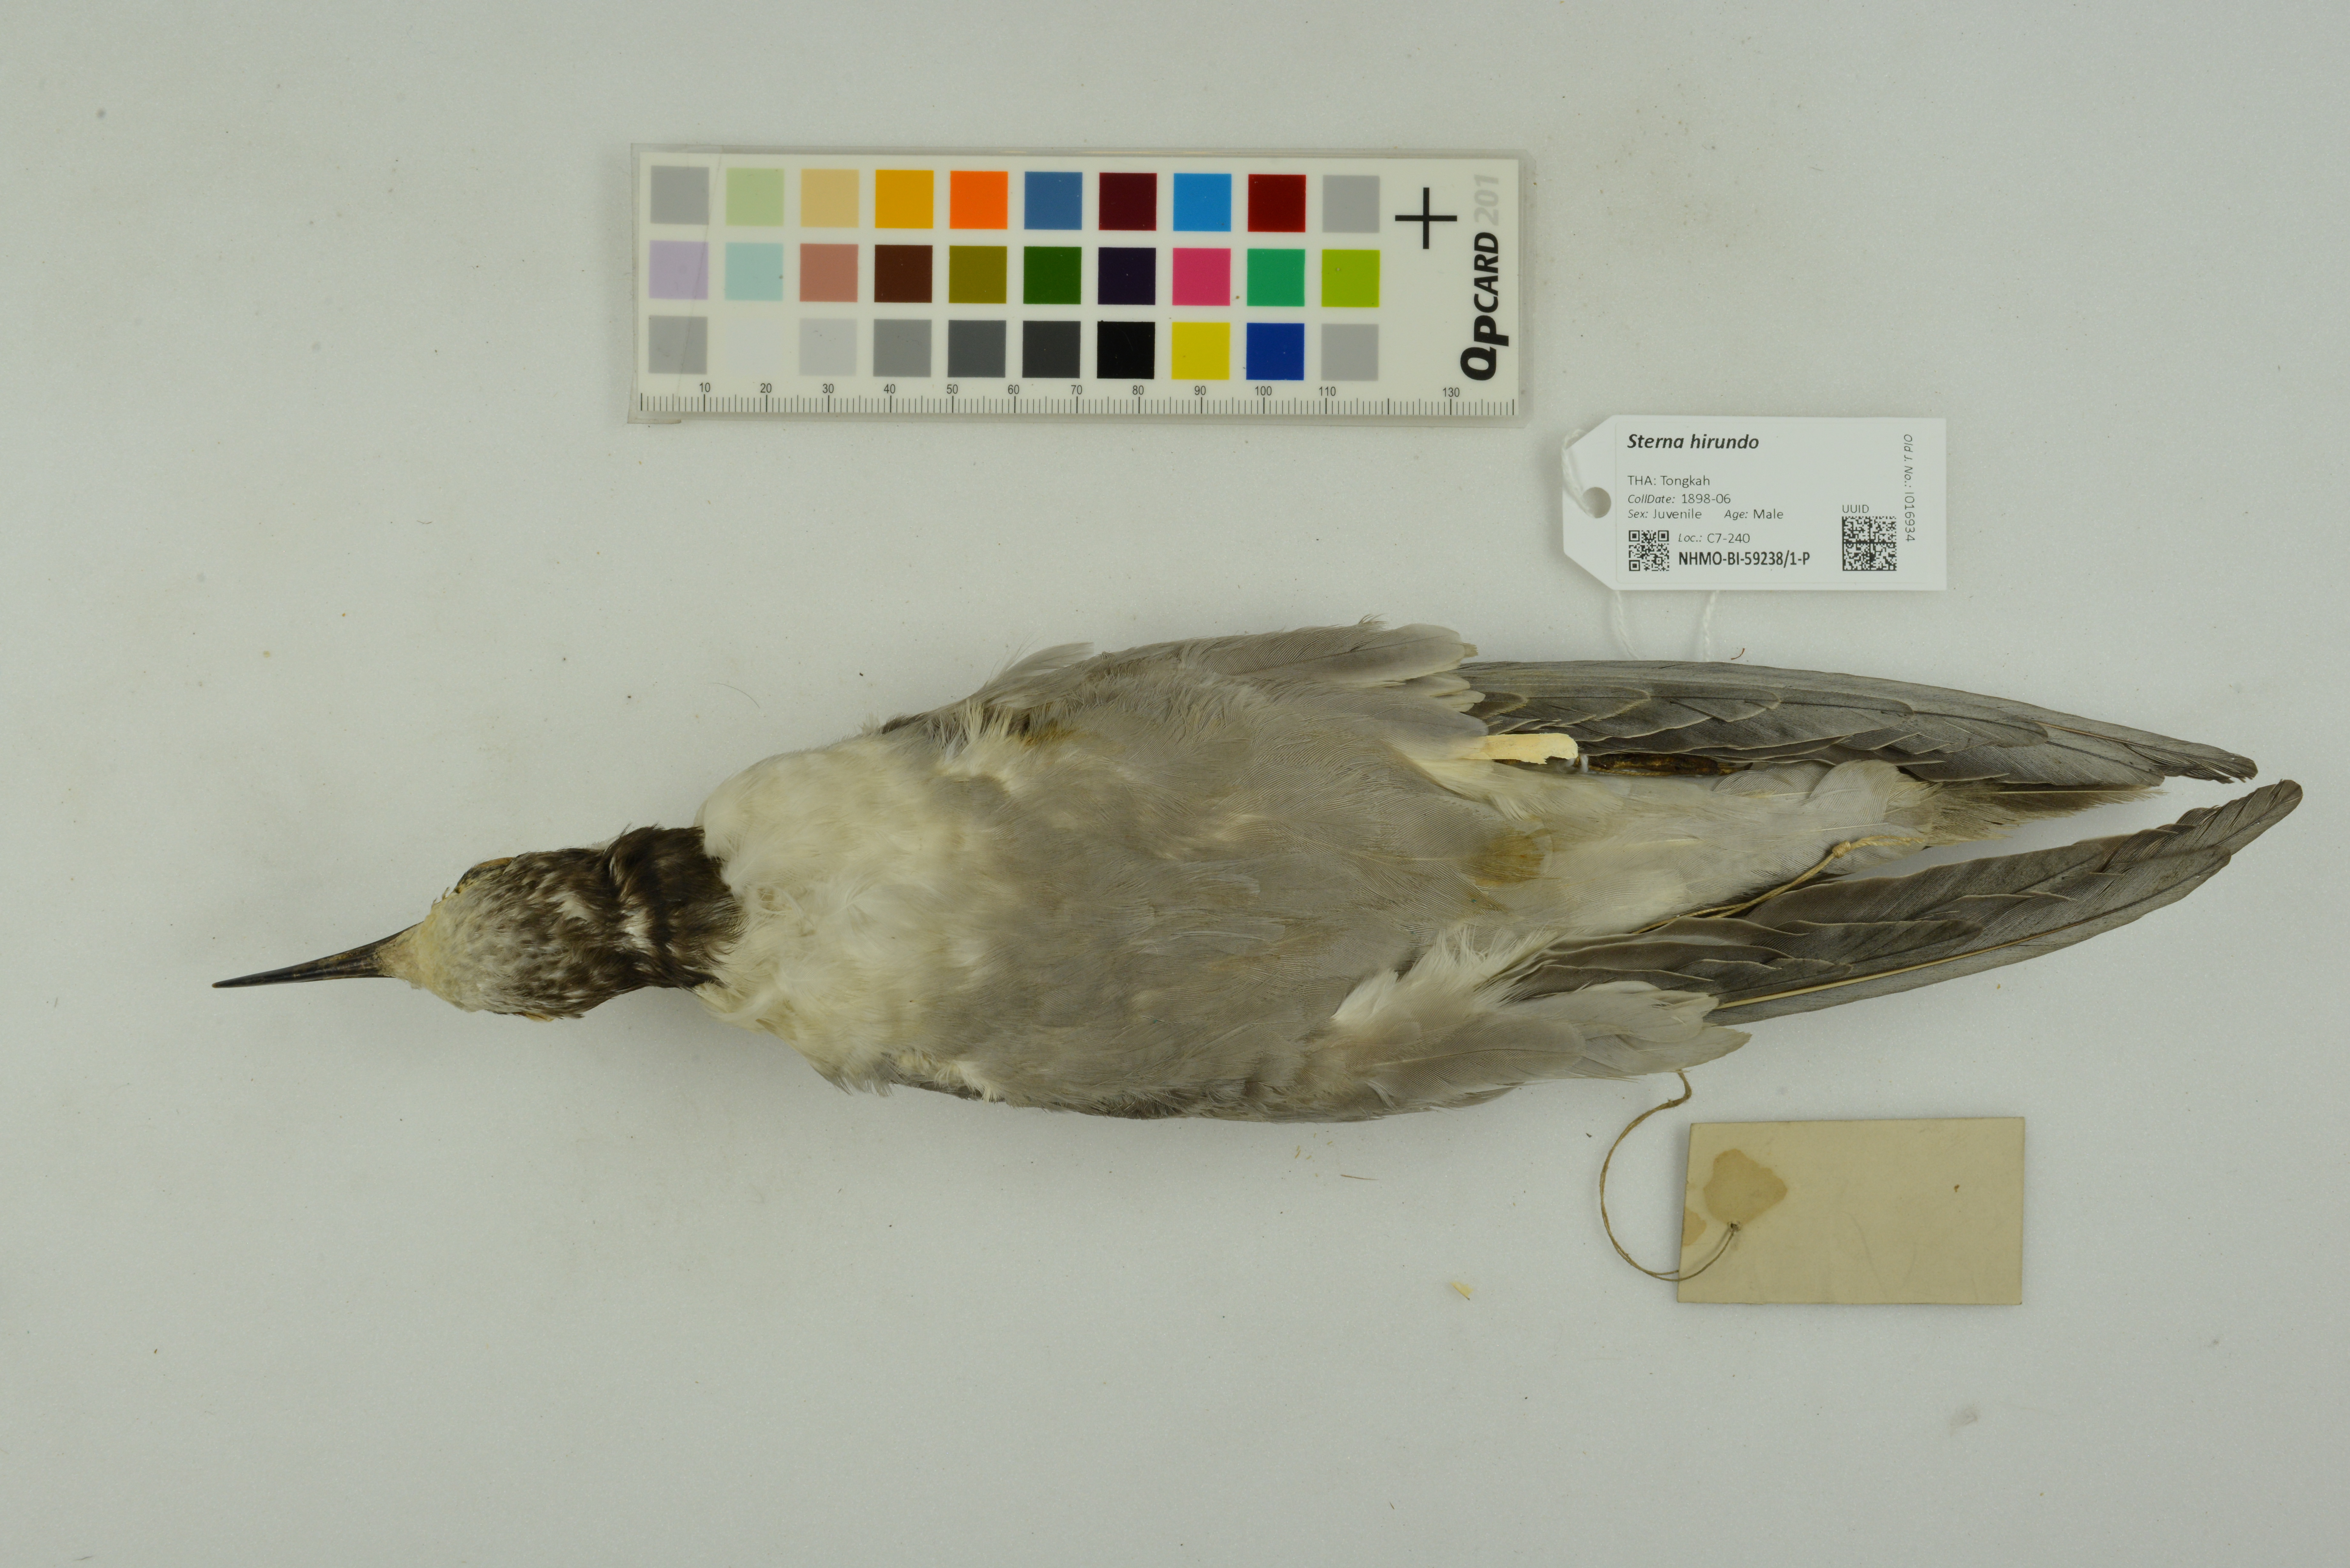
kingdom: Animalia
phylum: Chordata
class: Aves
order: Charadriiformes
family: Laridae
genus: Sterna
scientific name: Sterna hirundo
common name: Common tern
